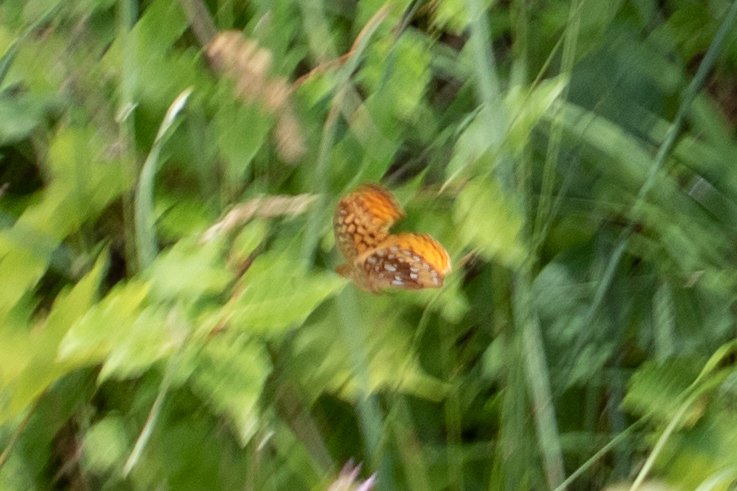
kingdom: Animalia
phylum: Arthropoda
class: Insecta
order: Lepidoptera
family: Nymphalidae
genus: Speyeria
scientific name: Speyeria cybele
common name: Great Spangled Fritillary
